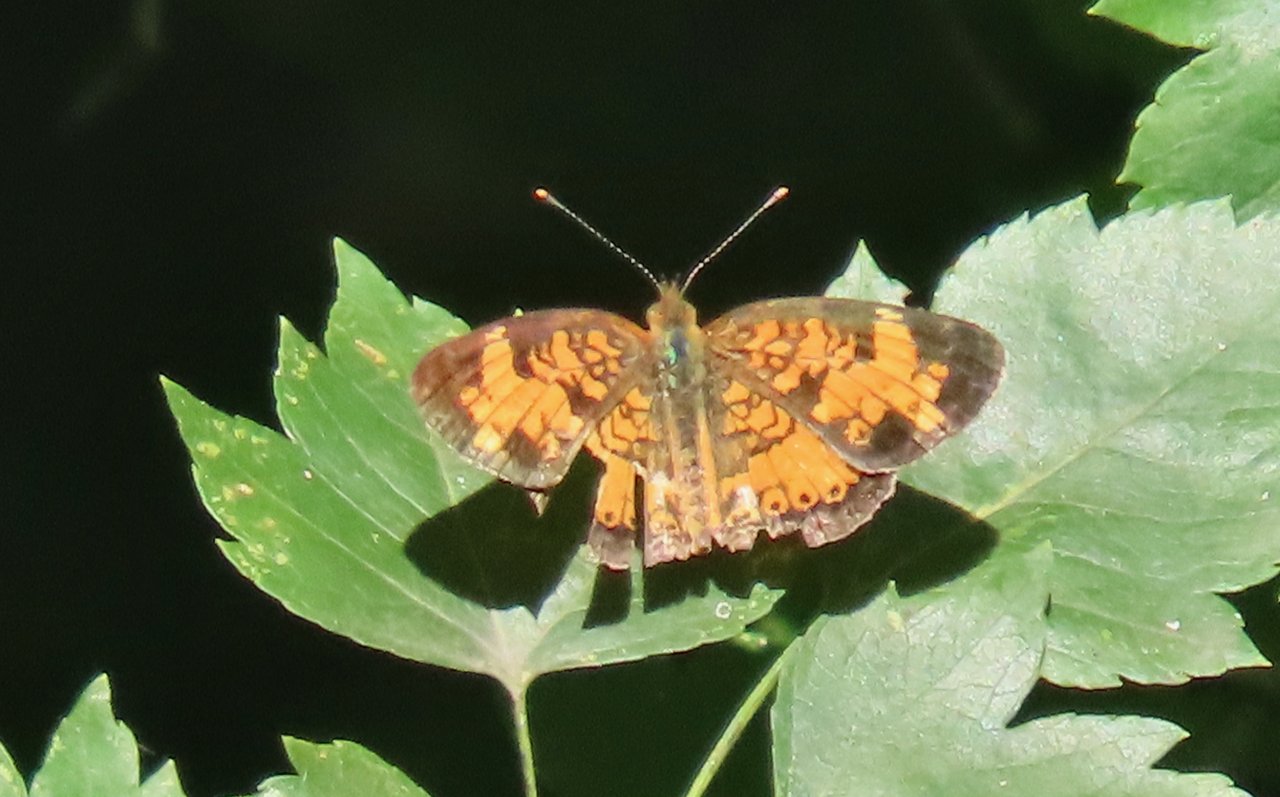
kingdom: Animalia
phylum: Arthropoda
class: Insecta
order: Lepidoptera
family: Nymphalidae
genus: Phyciodes
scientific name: Phyciodes tharos
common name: Pearl Crescent
